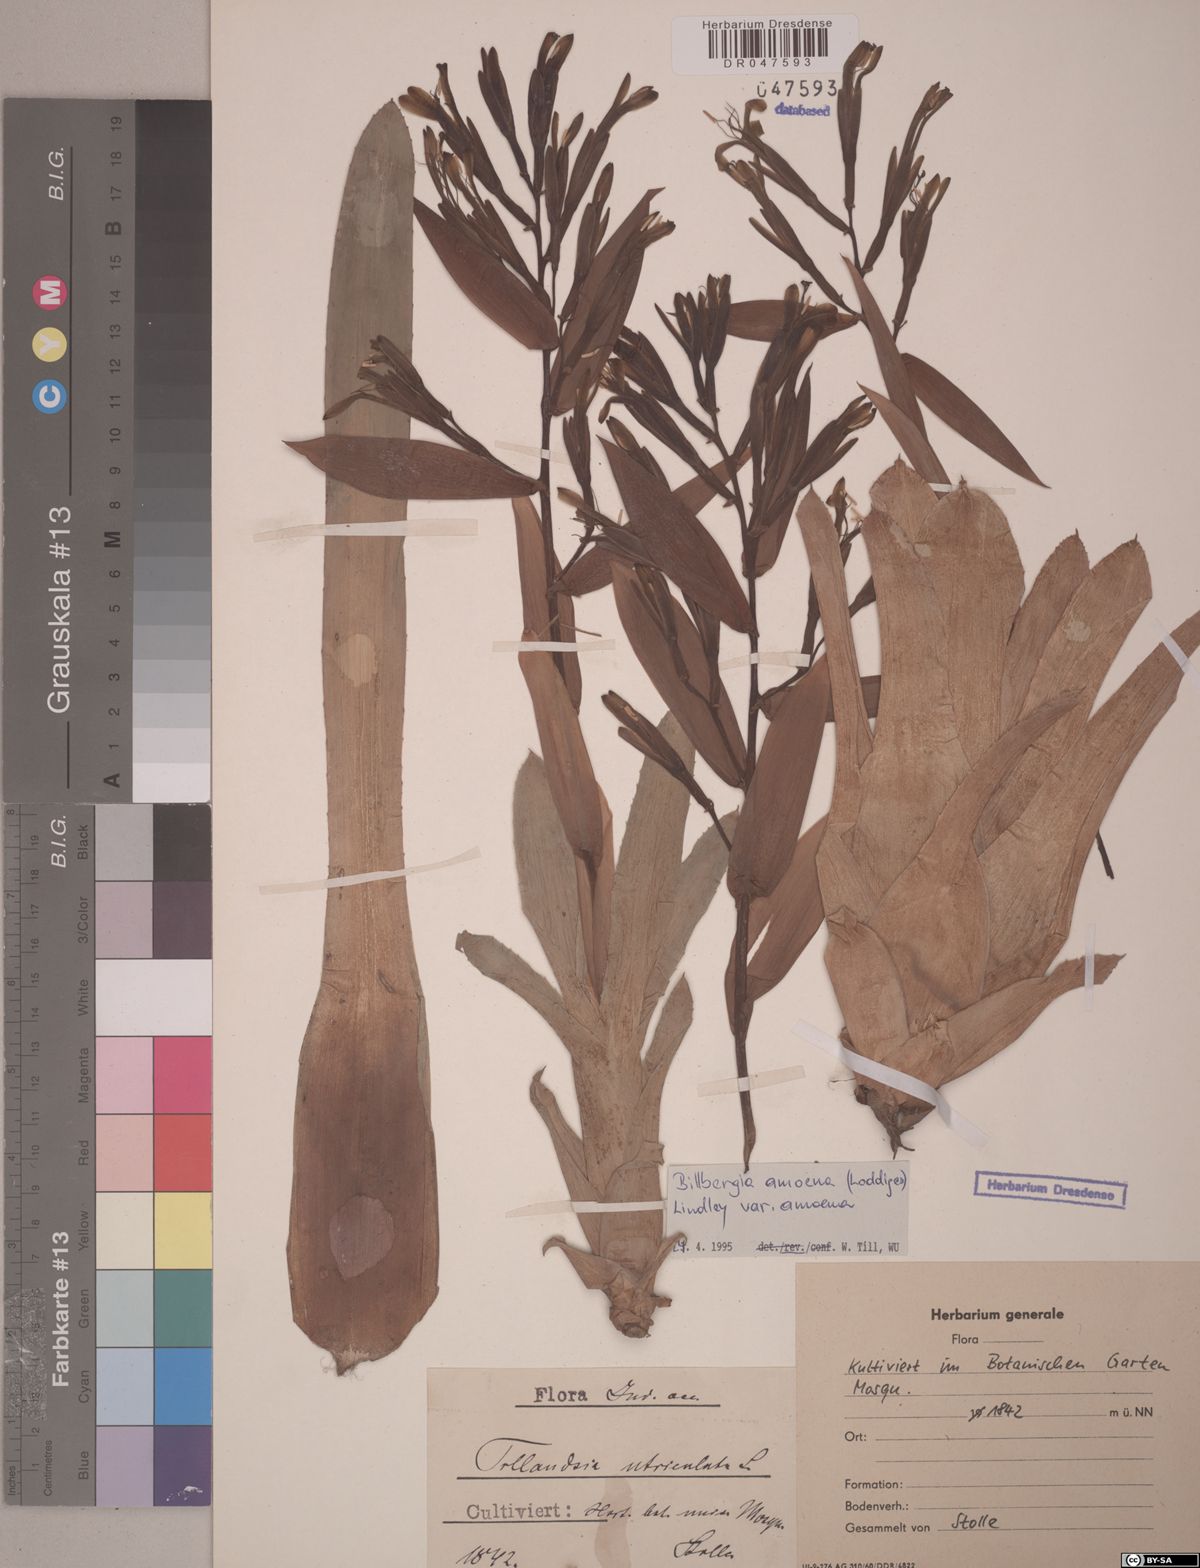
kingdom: Plantae
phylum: Tracheophyta
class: Liliopsida
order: Poales
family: Bromeliaceae
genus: Tillandsia
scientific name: Tillandsia tenuifolia
